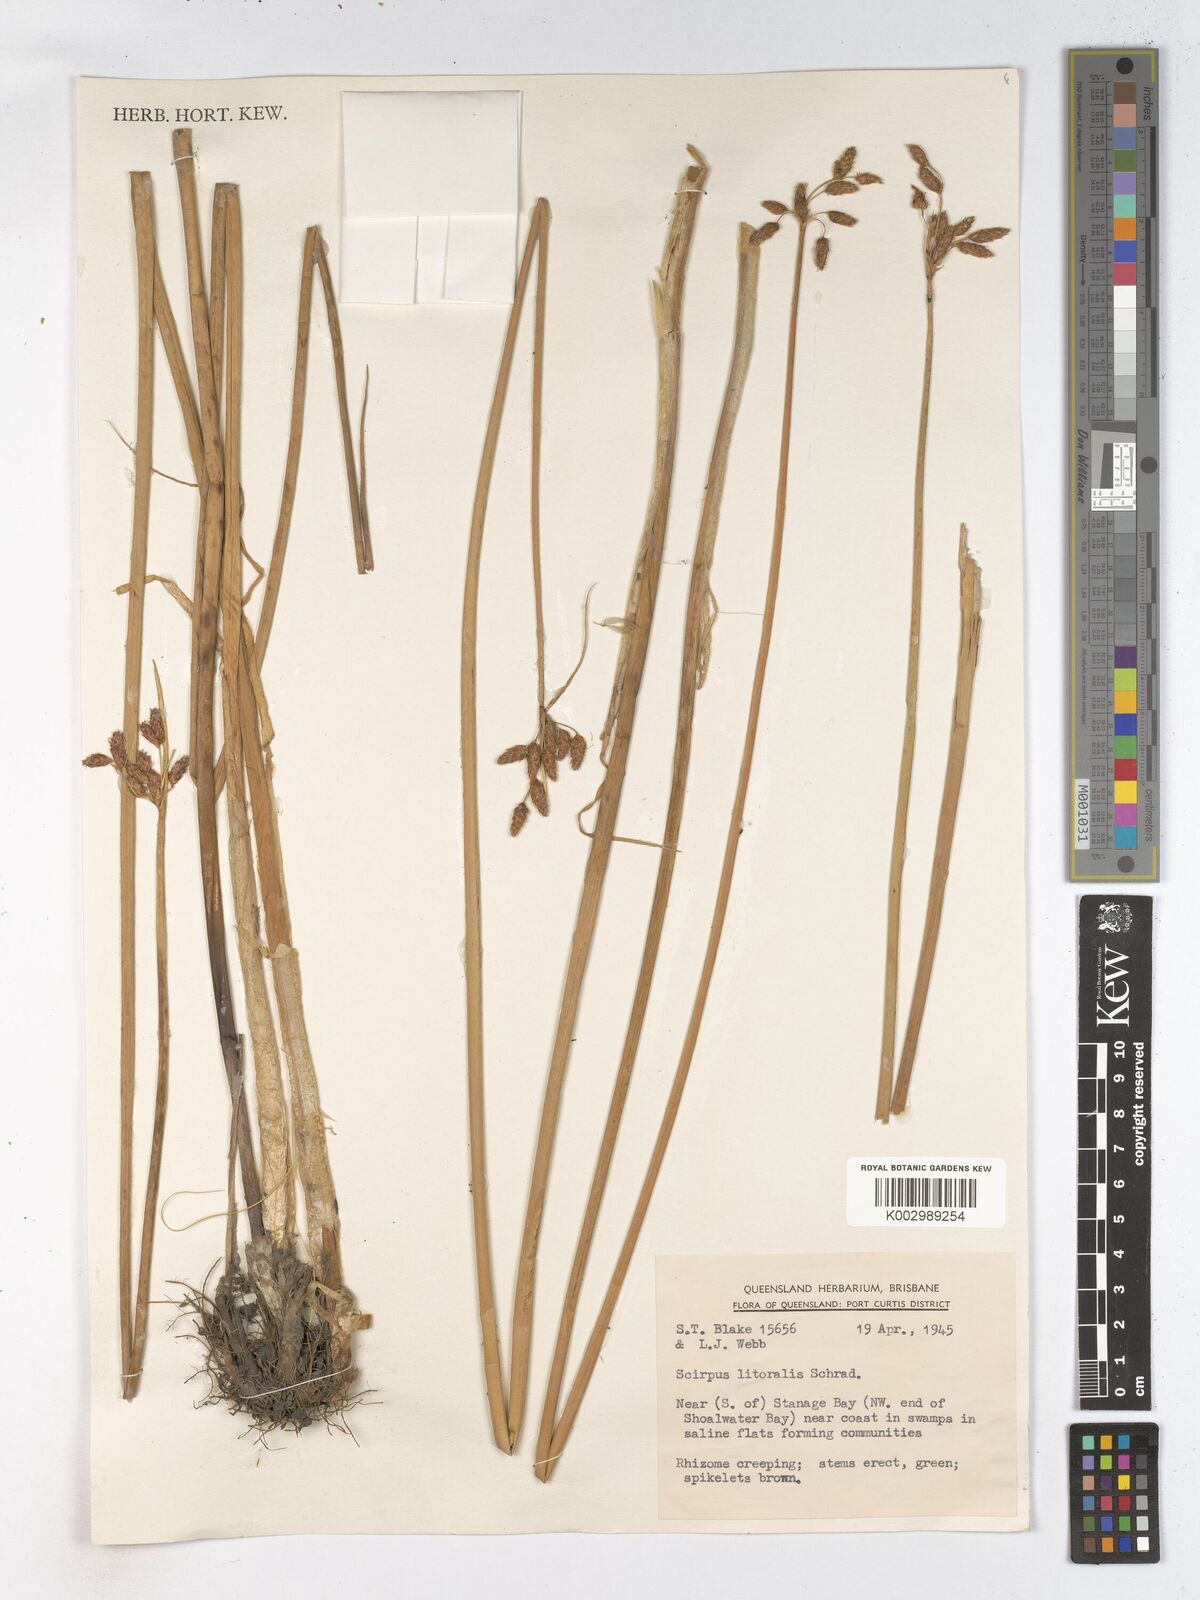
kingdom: Plantae
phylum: Tracheophyta
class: Liliopsida
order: Poales
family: Cyperaceae
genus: Schoenoplectus
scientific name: Schoenoplectus litoralis
